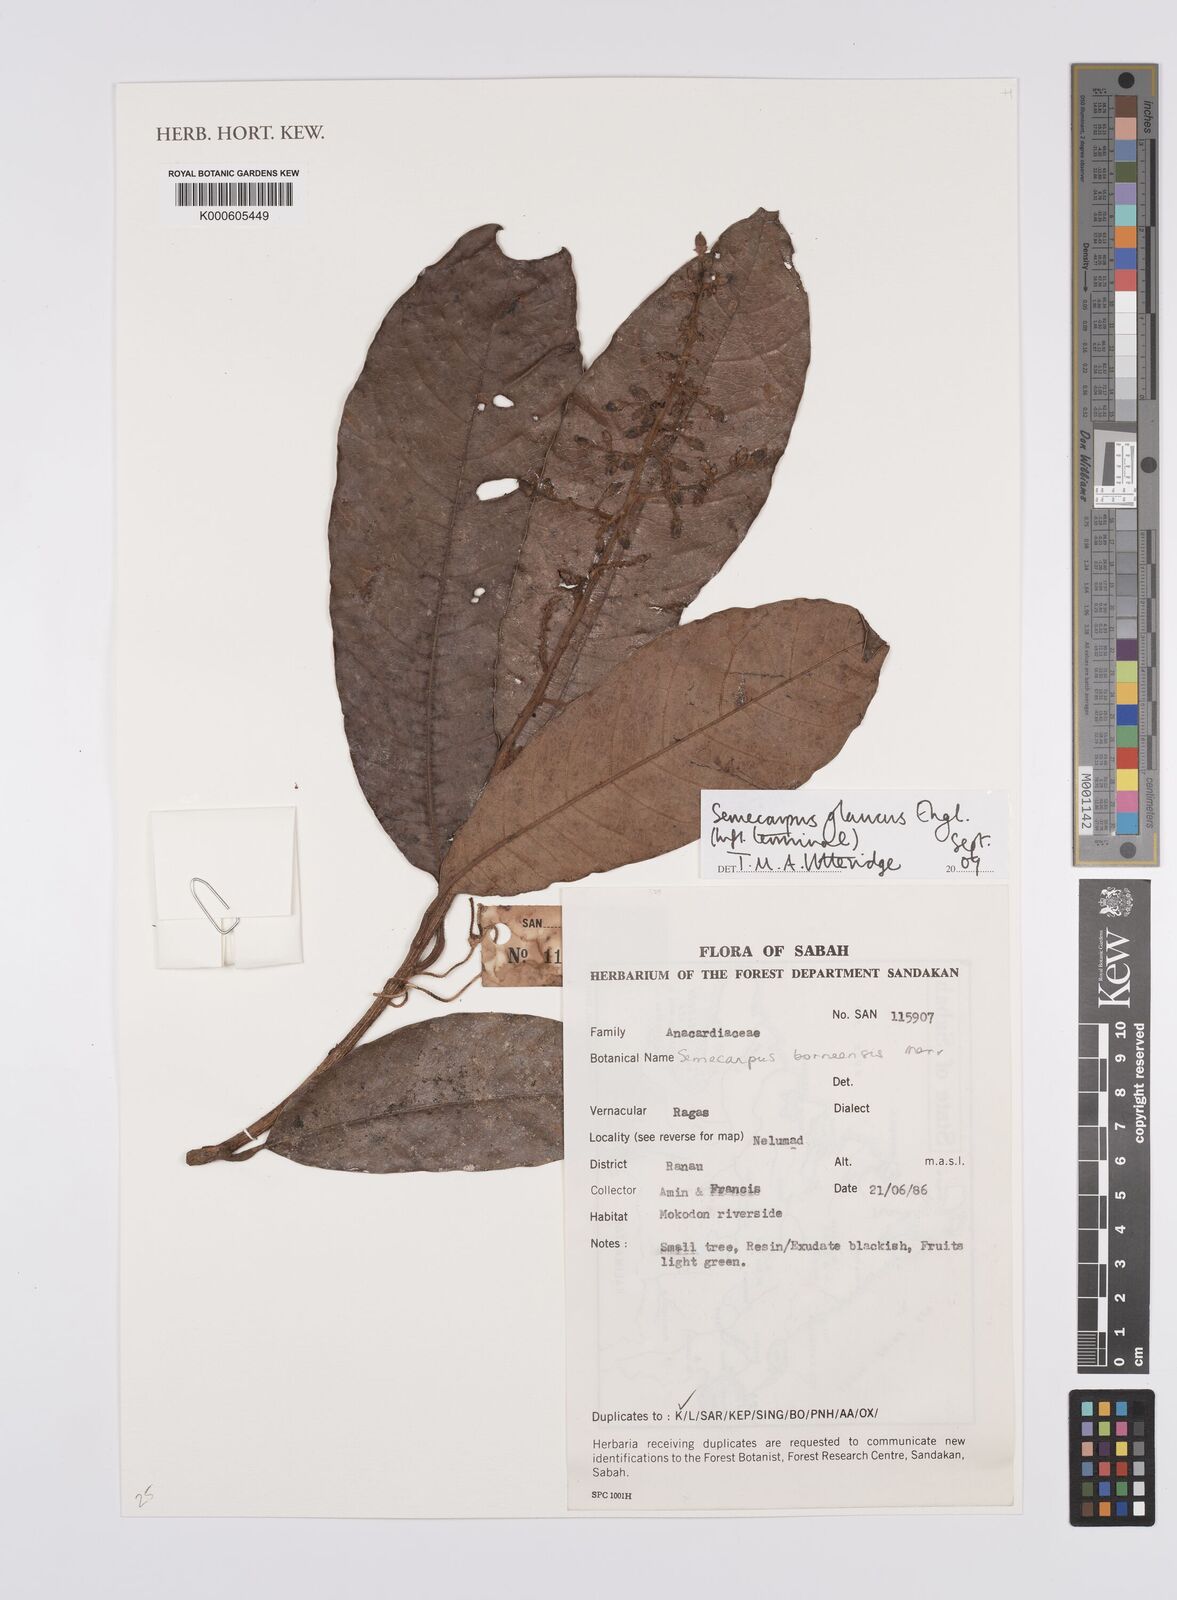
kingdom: Plantae
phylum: Tracheophyta
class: Magnoliopsida
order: Sapindales
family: Anacardiaceae
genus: Semecarpus
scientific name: Semecarpus glaucus
